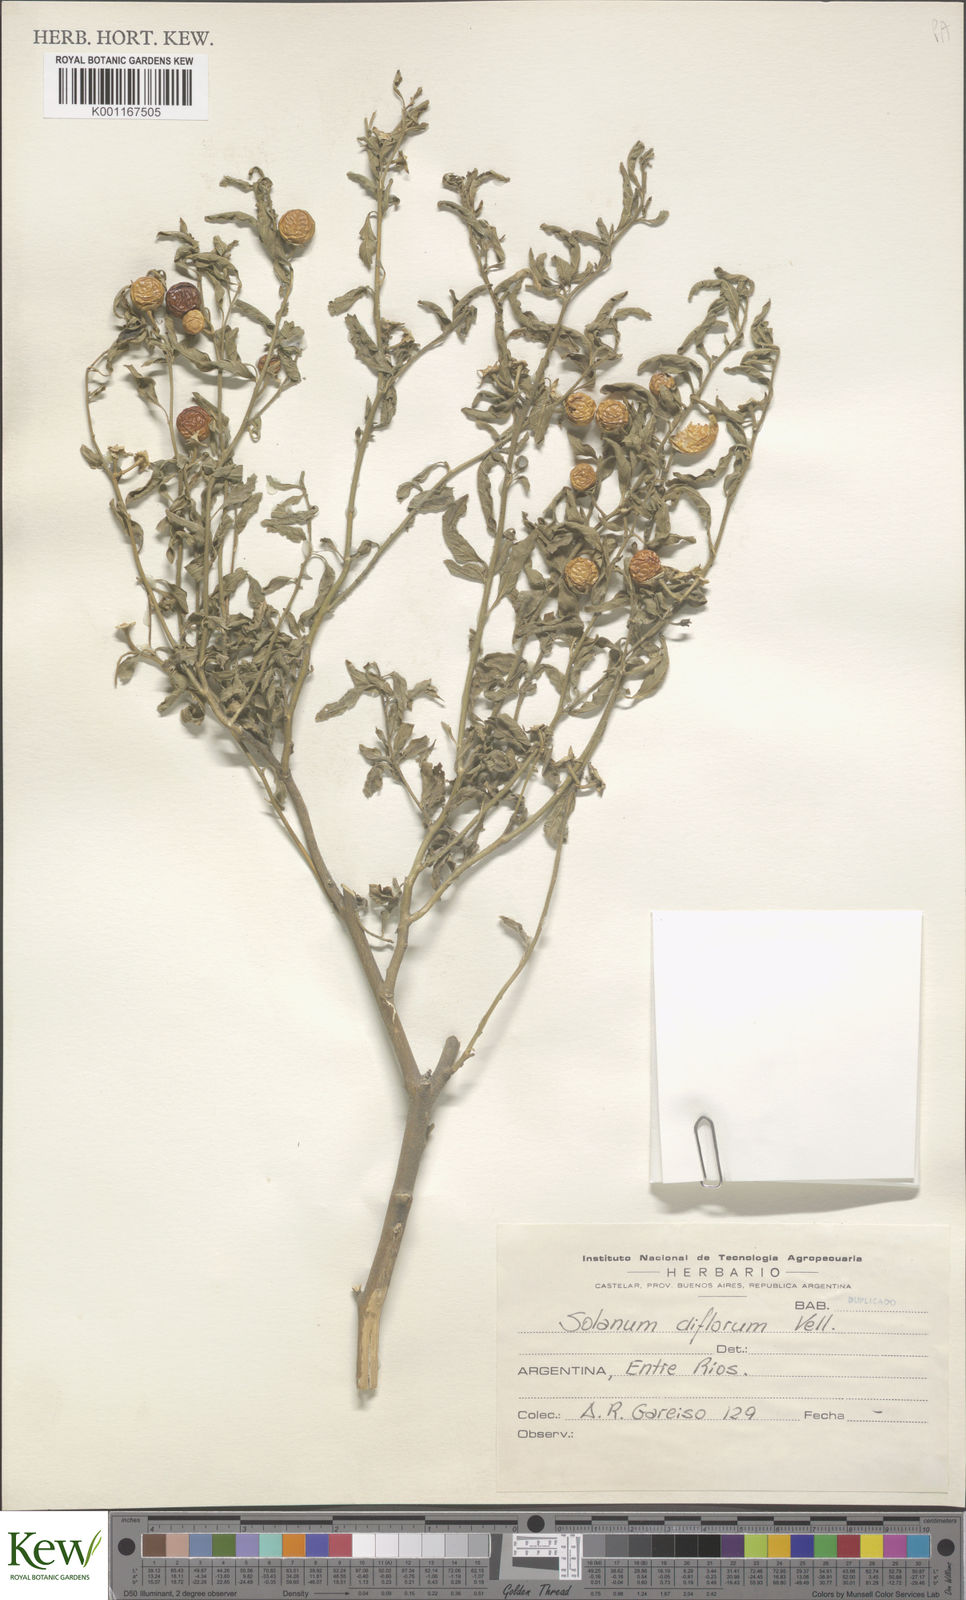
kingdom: Plantae
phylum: Tracheophyta
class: Magnoliopsida
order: Solanales
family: Solanaceae
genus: Solanum
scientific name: Solanum pseudocapsicum
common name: Jerusalem cherry
